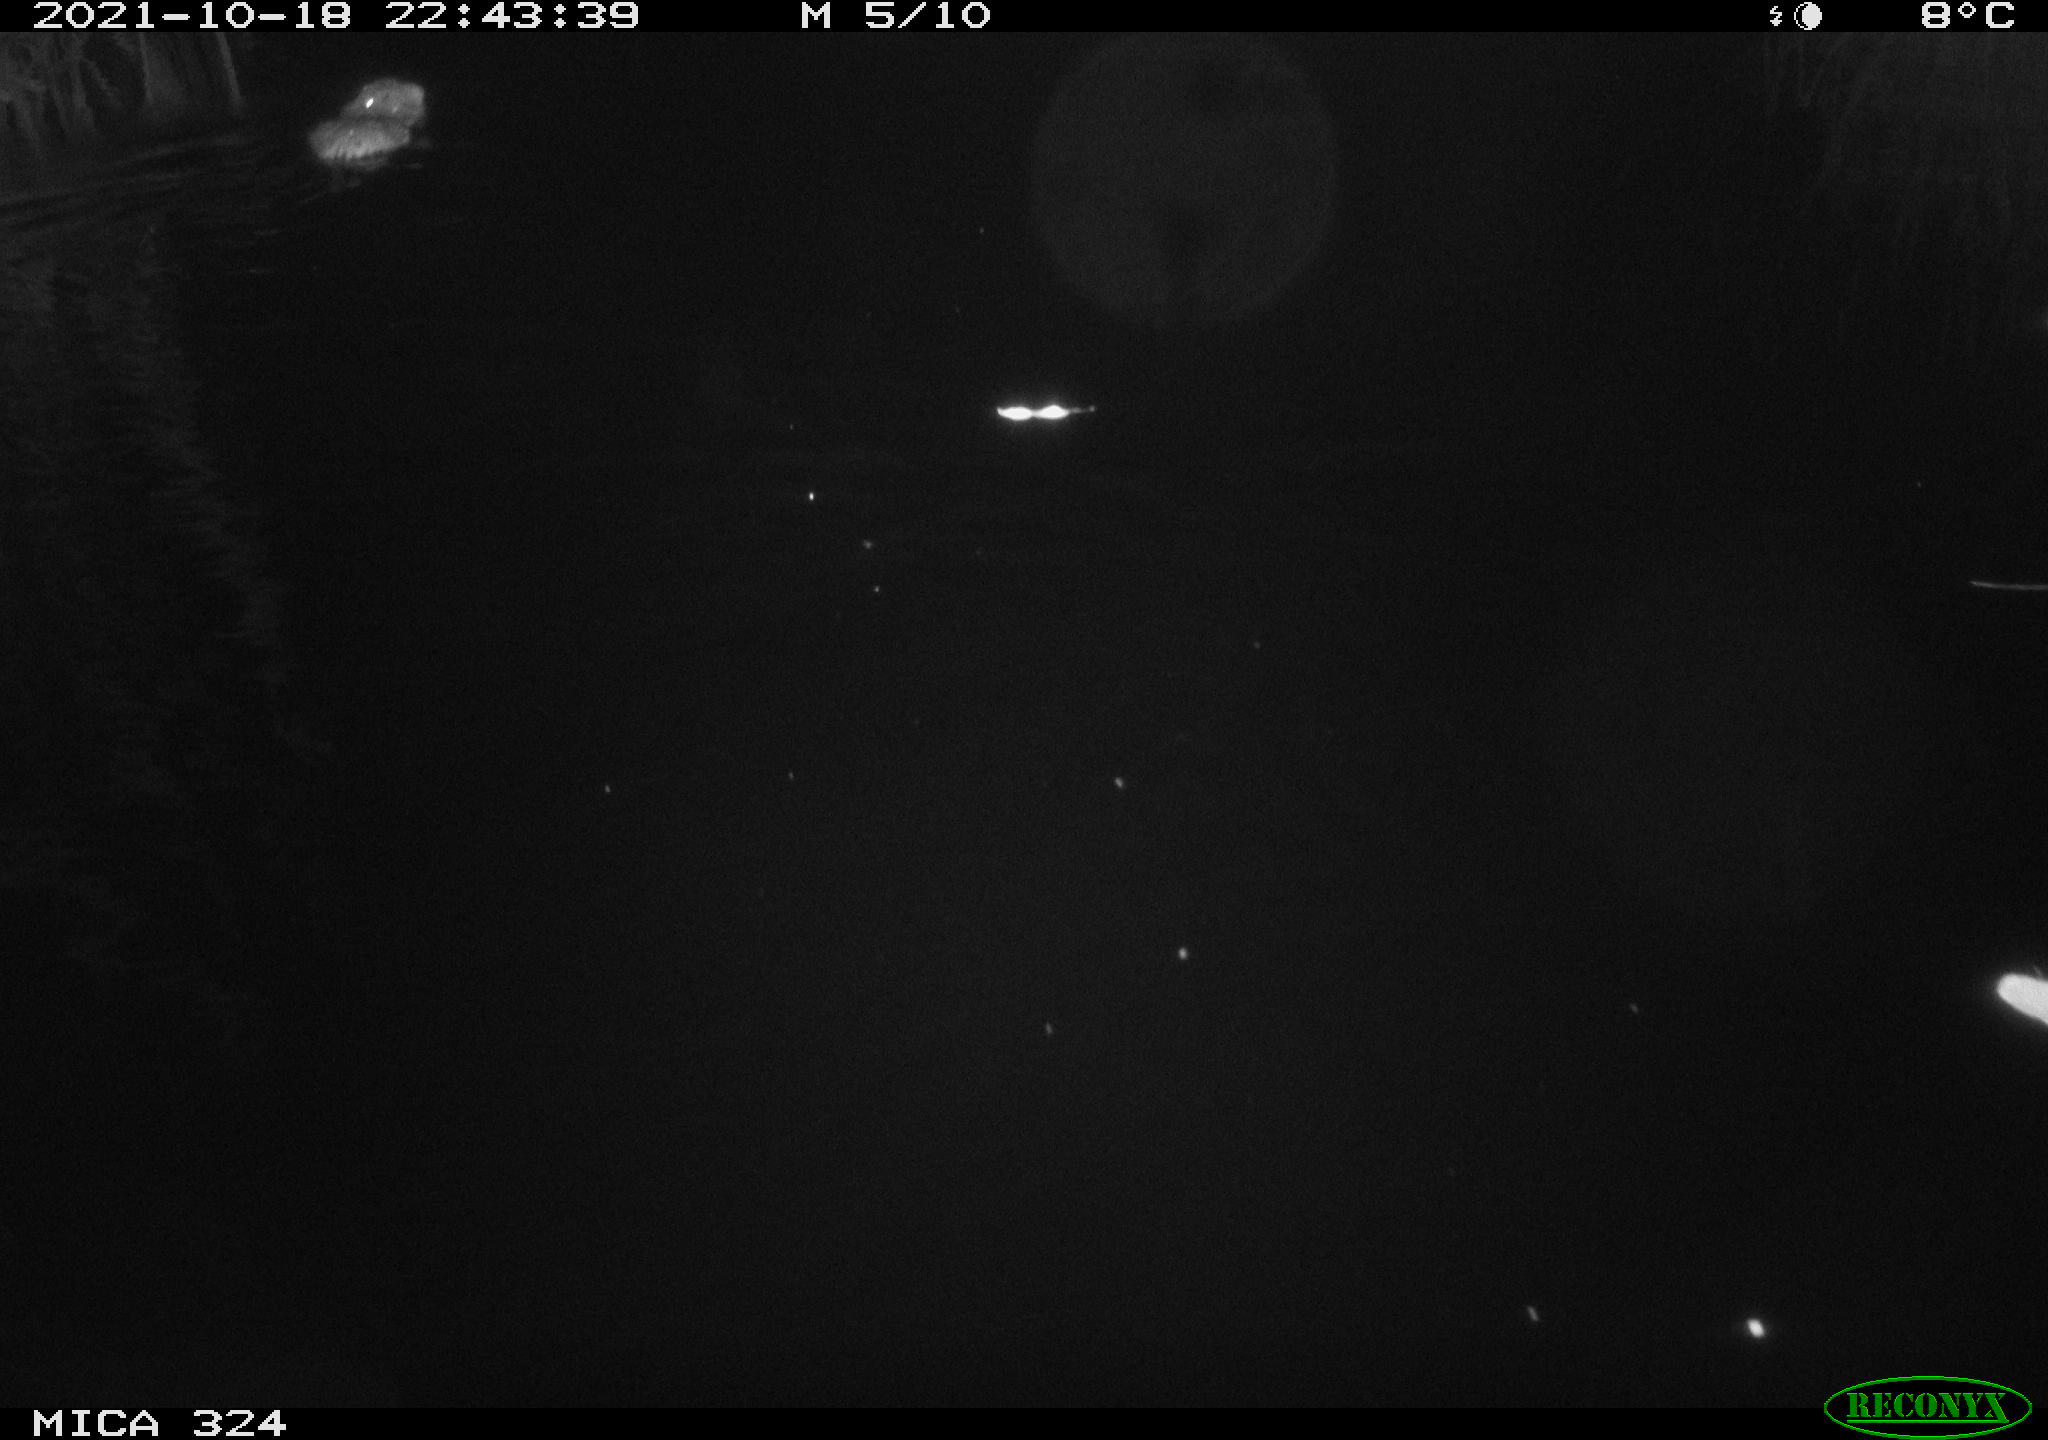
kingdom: Animalia
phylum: Chordata
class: Mammalia
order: Rodentia
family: Cricetidae
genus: Ondatra
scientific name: Ondatra zibethicus
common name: Muskrat
